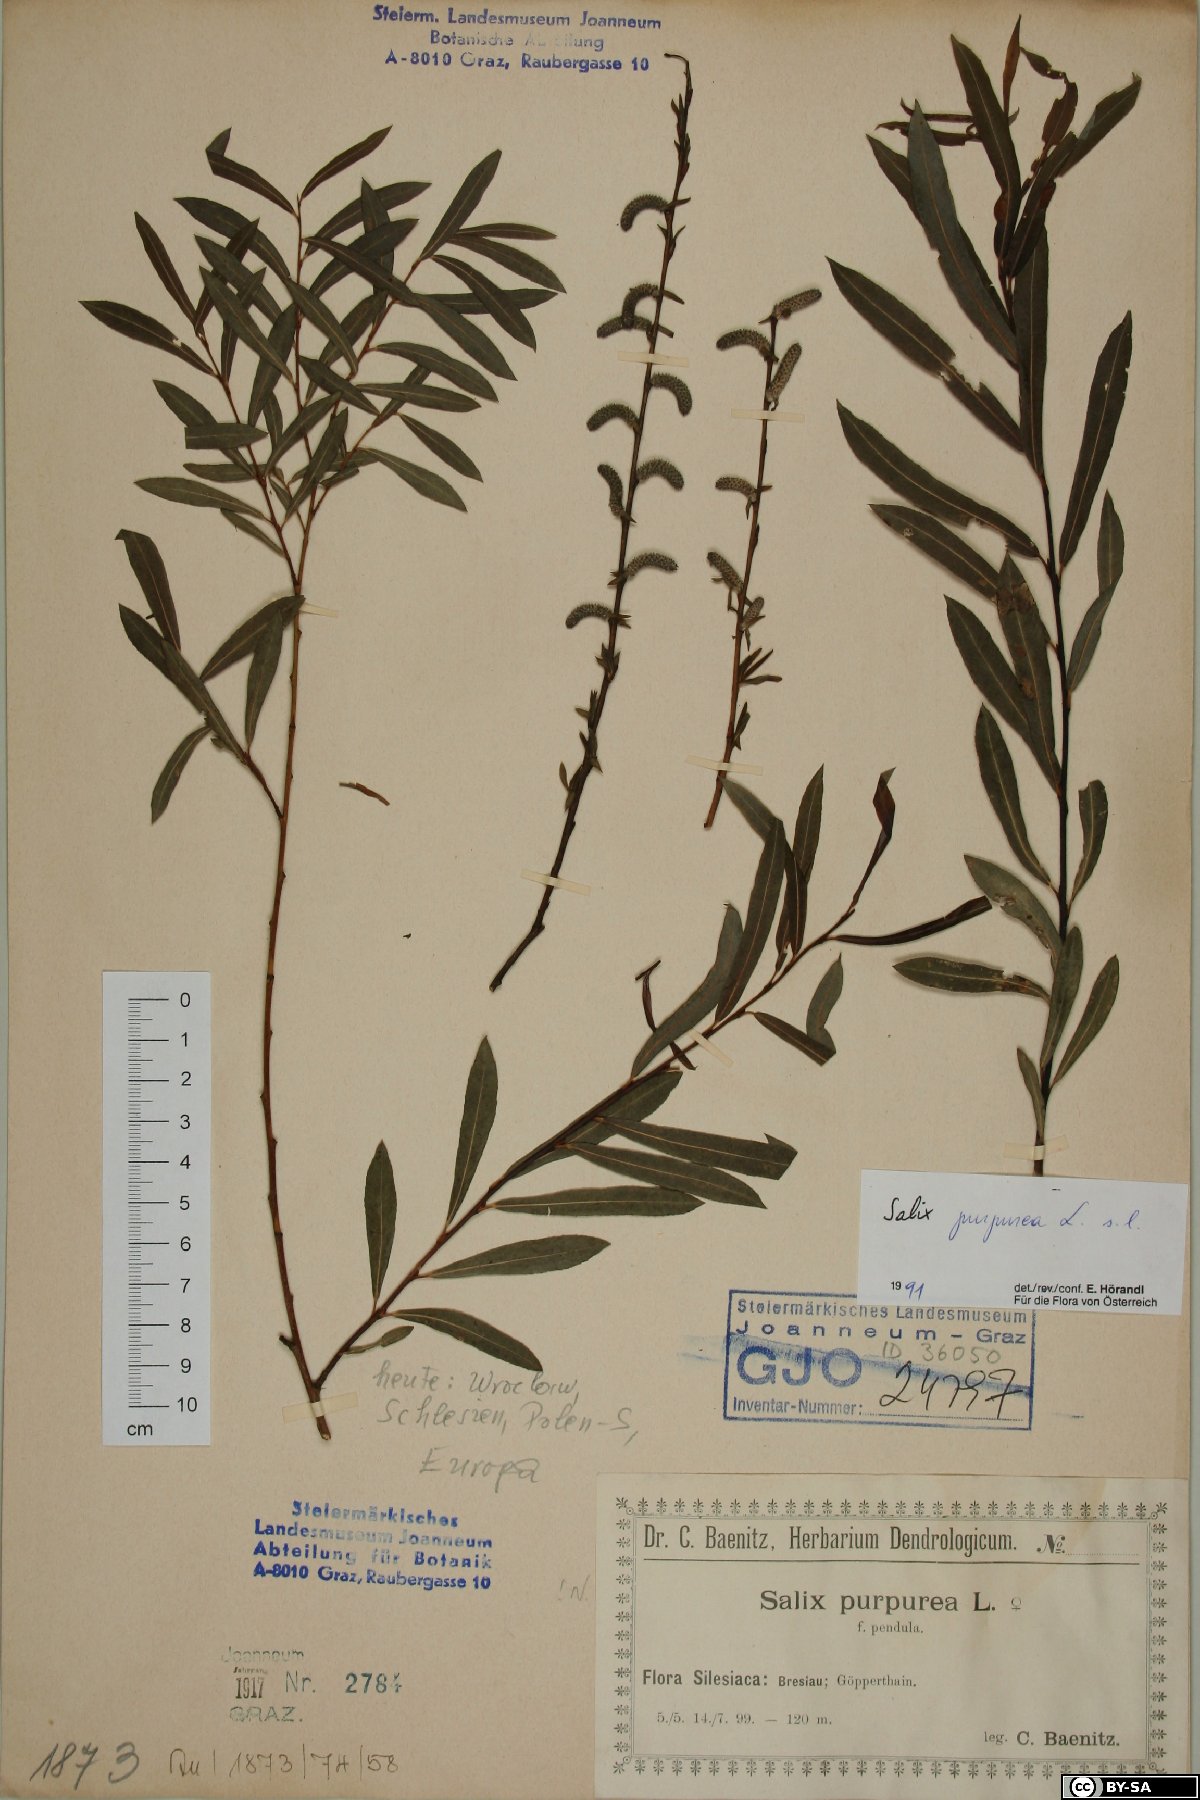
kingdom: Plantae
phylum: Tracheophyta
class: Magnoliopsida
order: Malpighiales
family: Salicaceae
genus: Salix
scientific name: Salix purpurea
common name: Purple willow
